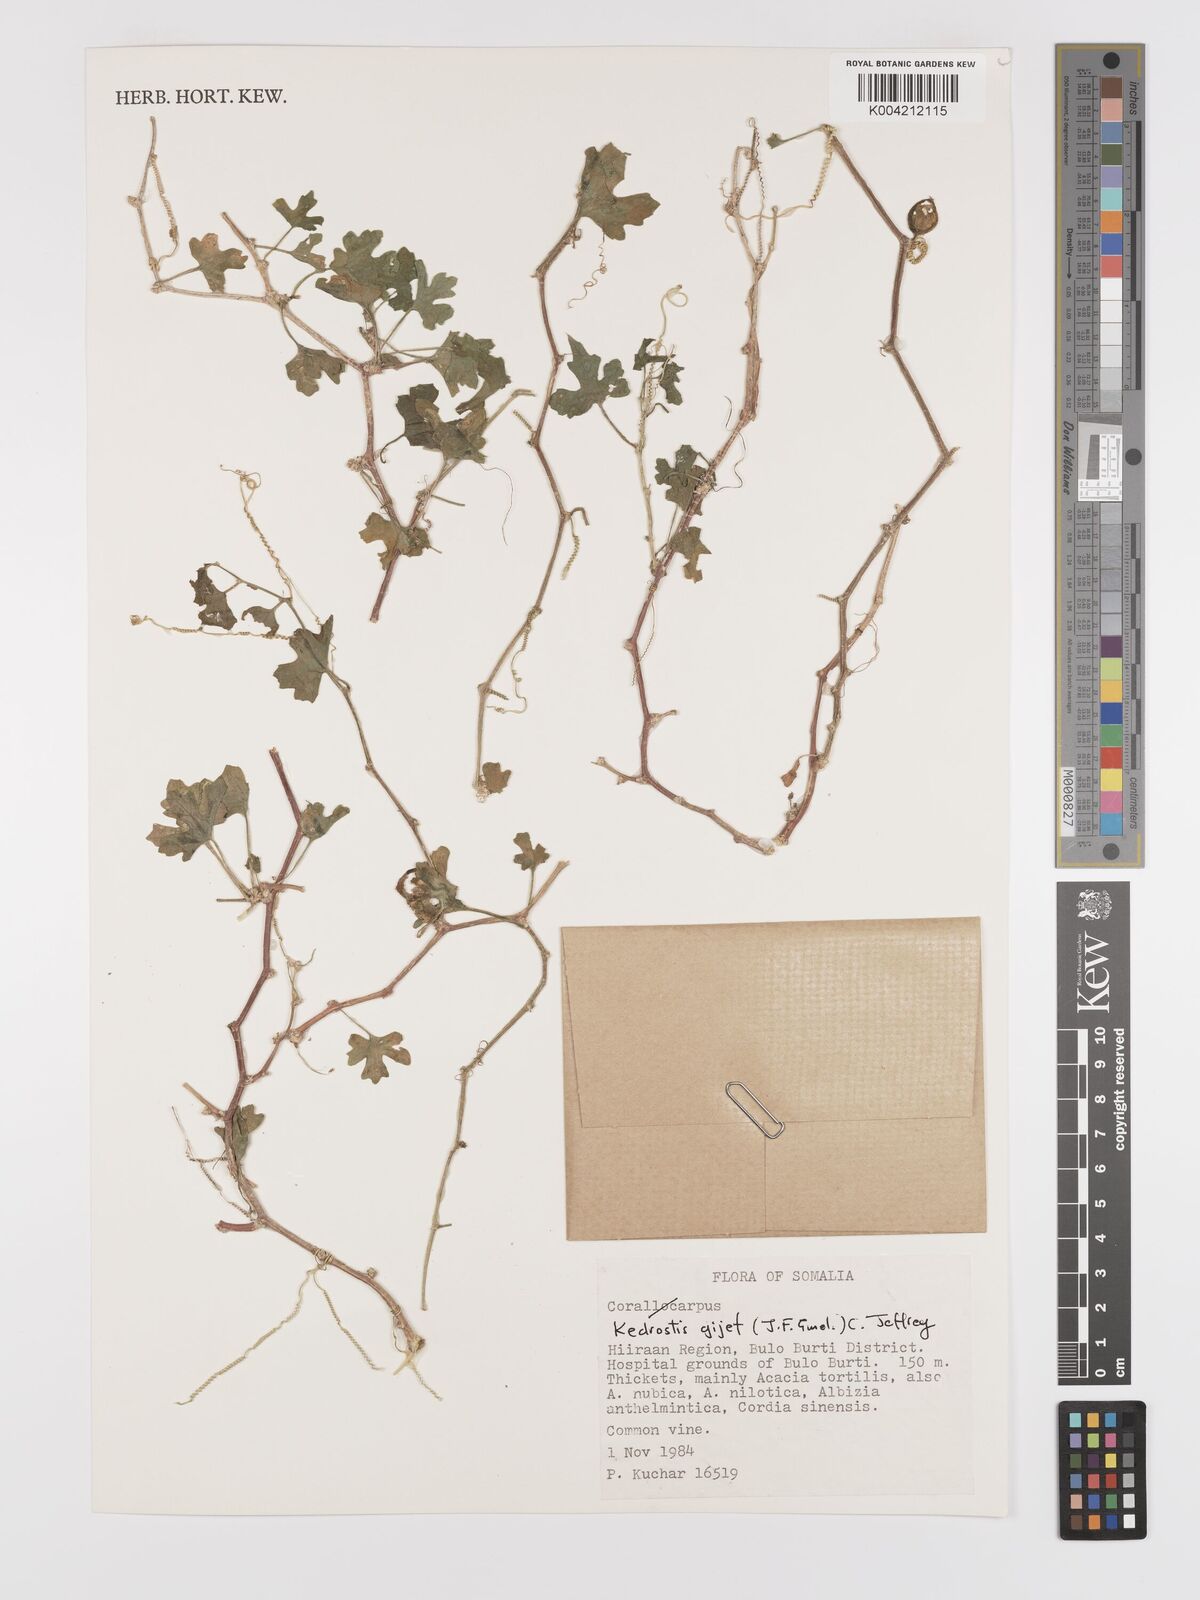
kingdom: Plantae
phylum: Tracheophyta
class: Magnoliopsida
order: Cucurbitales
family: Cucurbitaceae
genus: Kedrostis
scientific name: Kedrostis gijef
